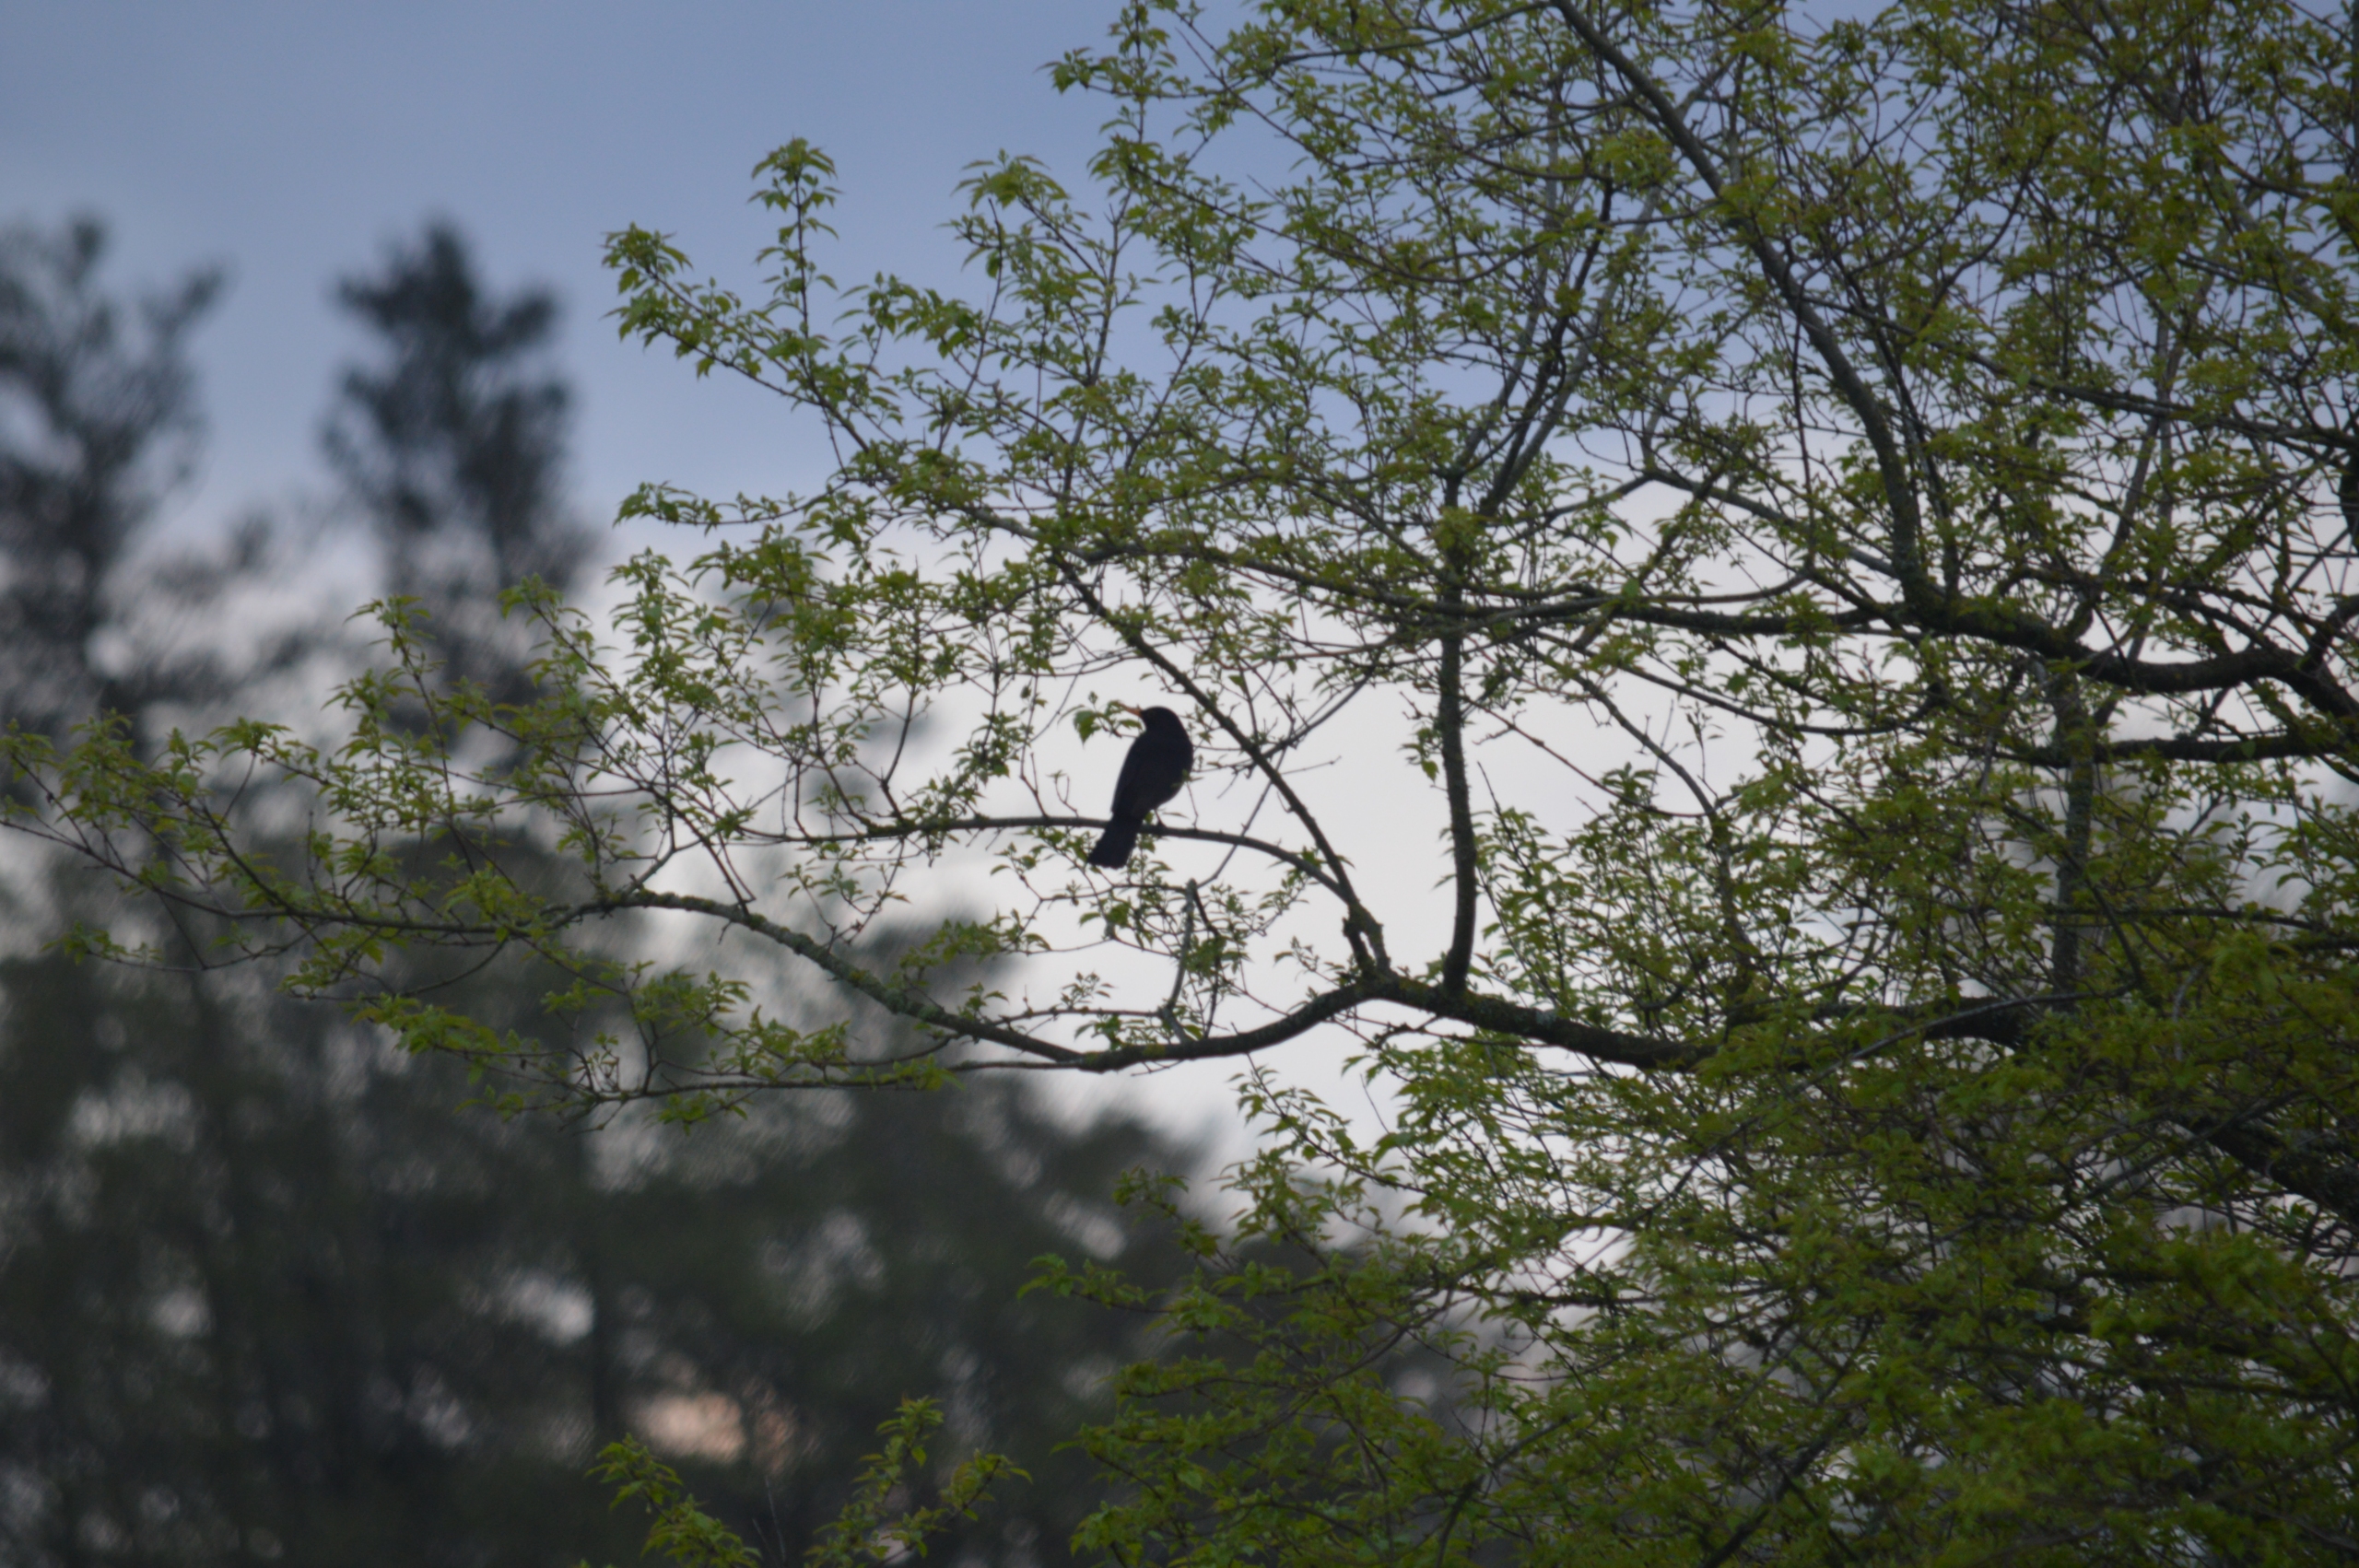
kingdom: Animalia
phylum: Chordata
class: Aves
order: Passeriformes
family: Turdidae
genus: Turdus
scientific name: Turdus merula
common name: Solsort
